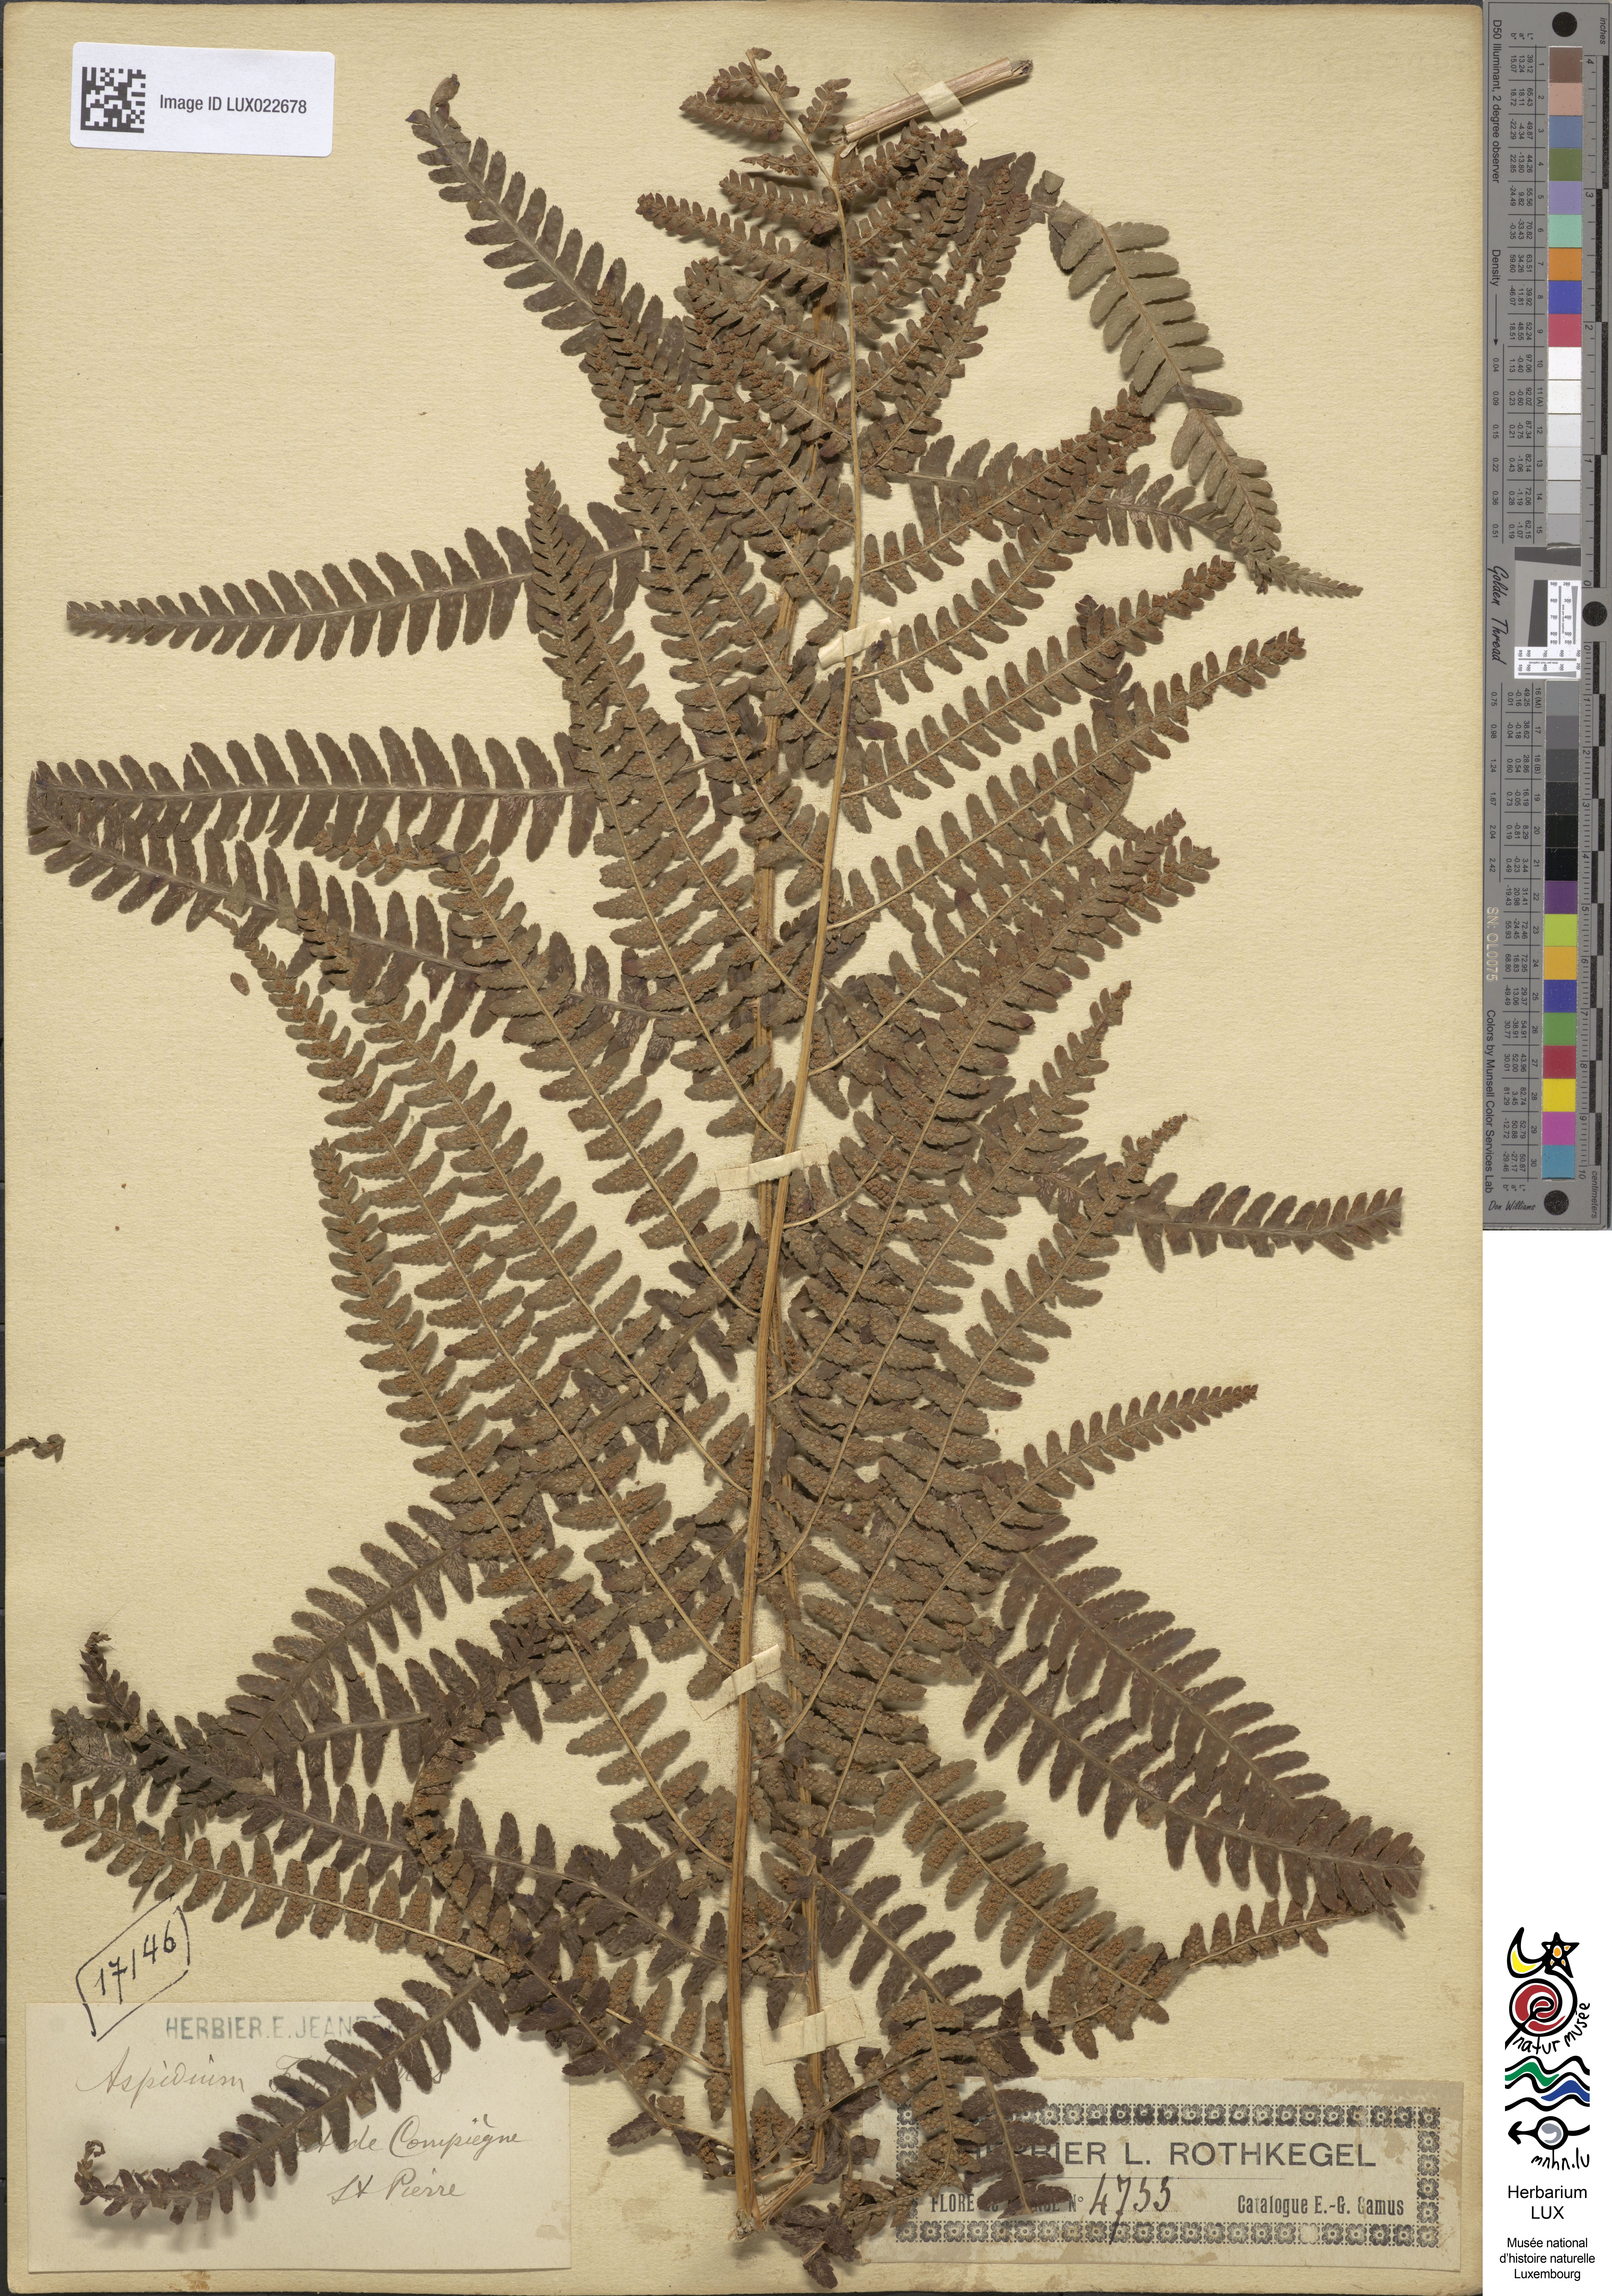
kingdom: Plantae
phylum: Tracheophyta
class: Polypodiopsida
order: Polypodiales
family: Dryopteridaceae
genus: Dryopteris
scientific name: Dryopteris filix-mas
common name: Male fern
